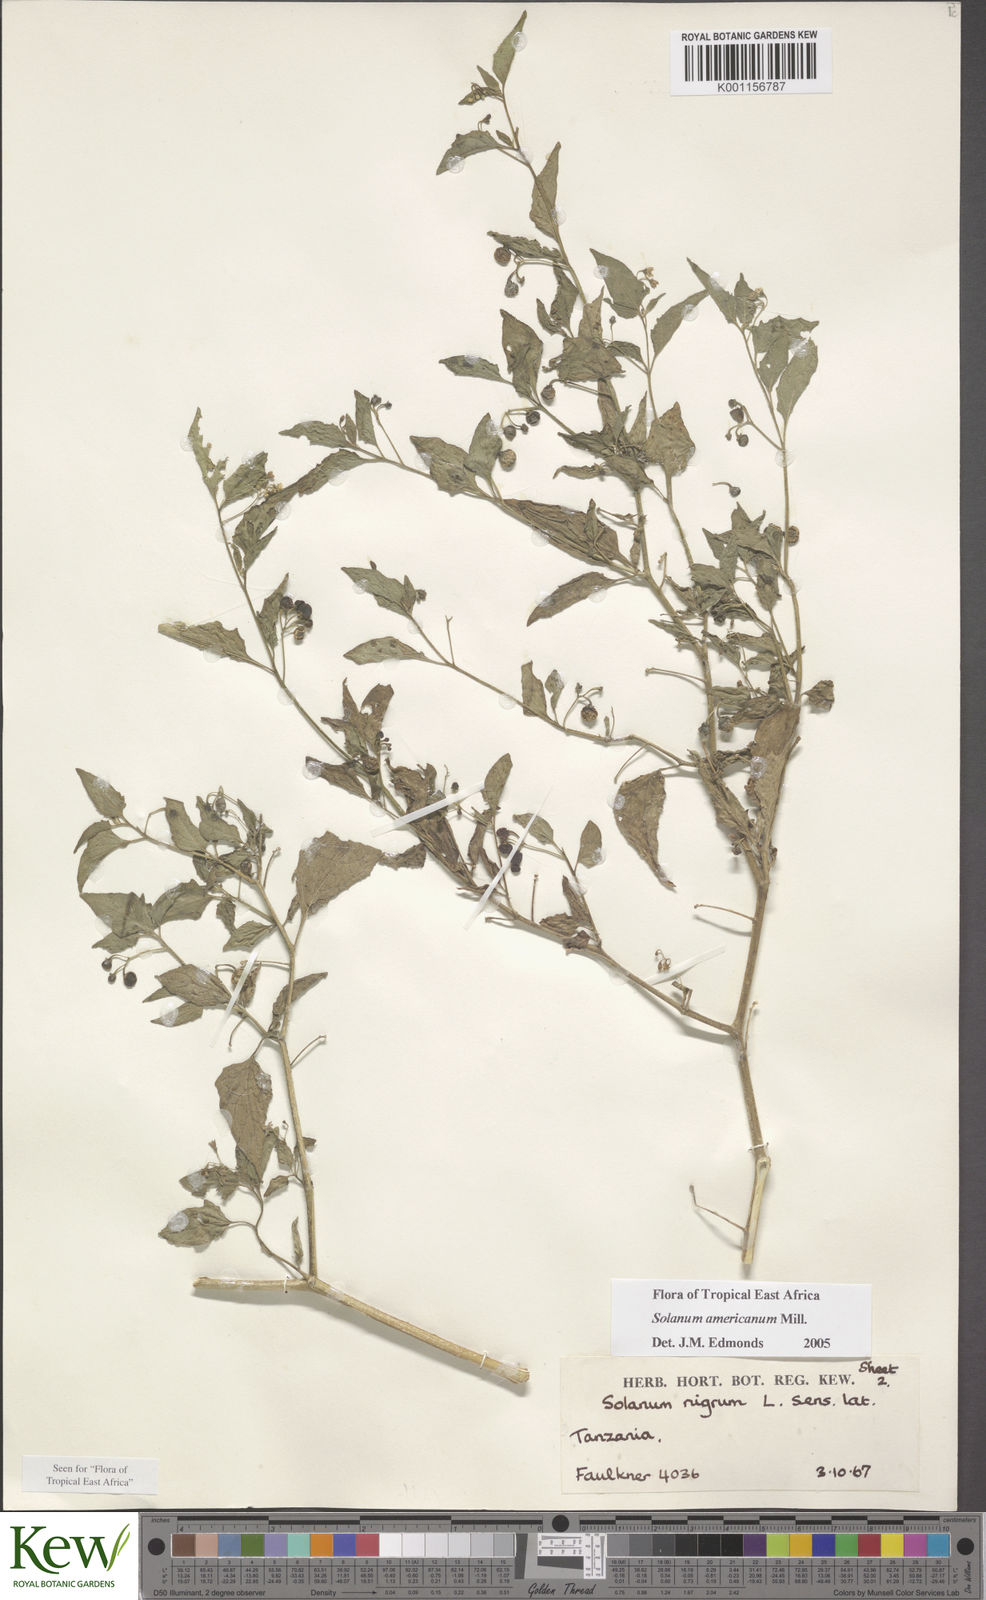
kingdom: Plantae
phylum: Tracheophyta
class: Magnoliopsida
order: Solanales
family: Solanaceae
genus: Solanum
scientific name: Solanum americanum
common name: American black nightshade
